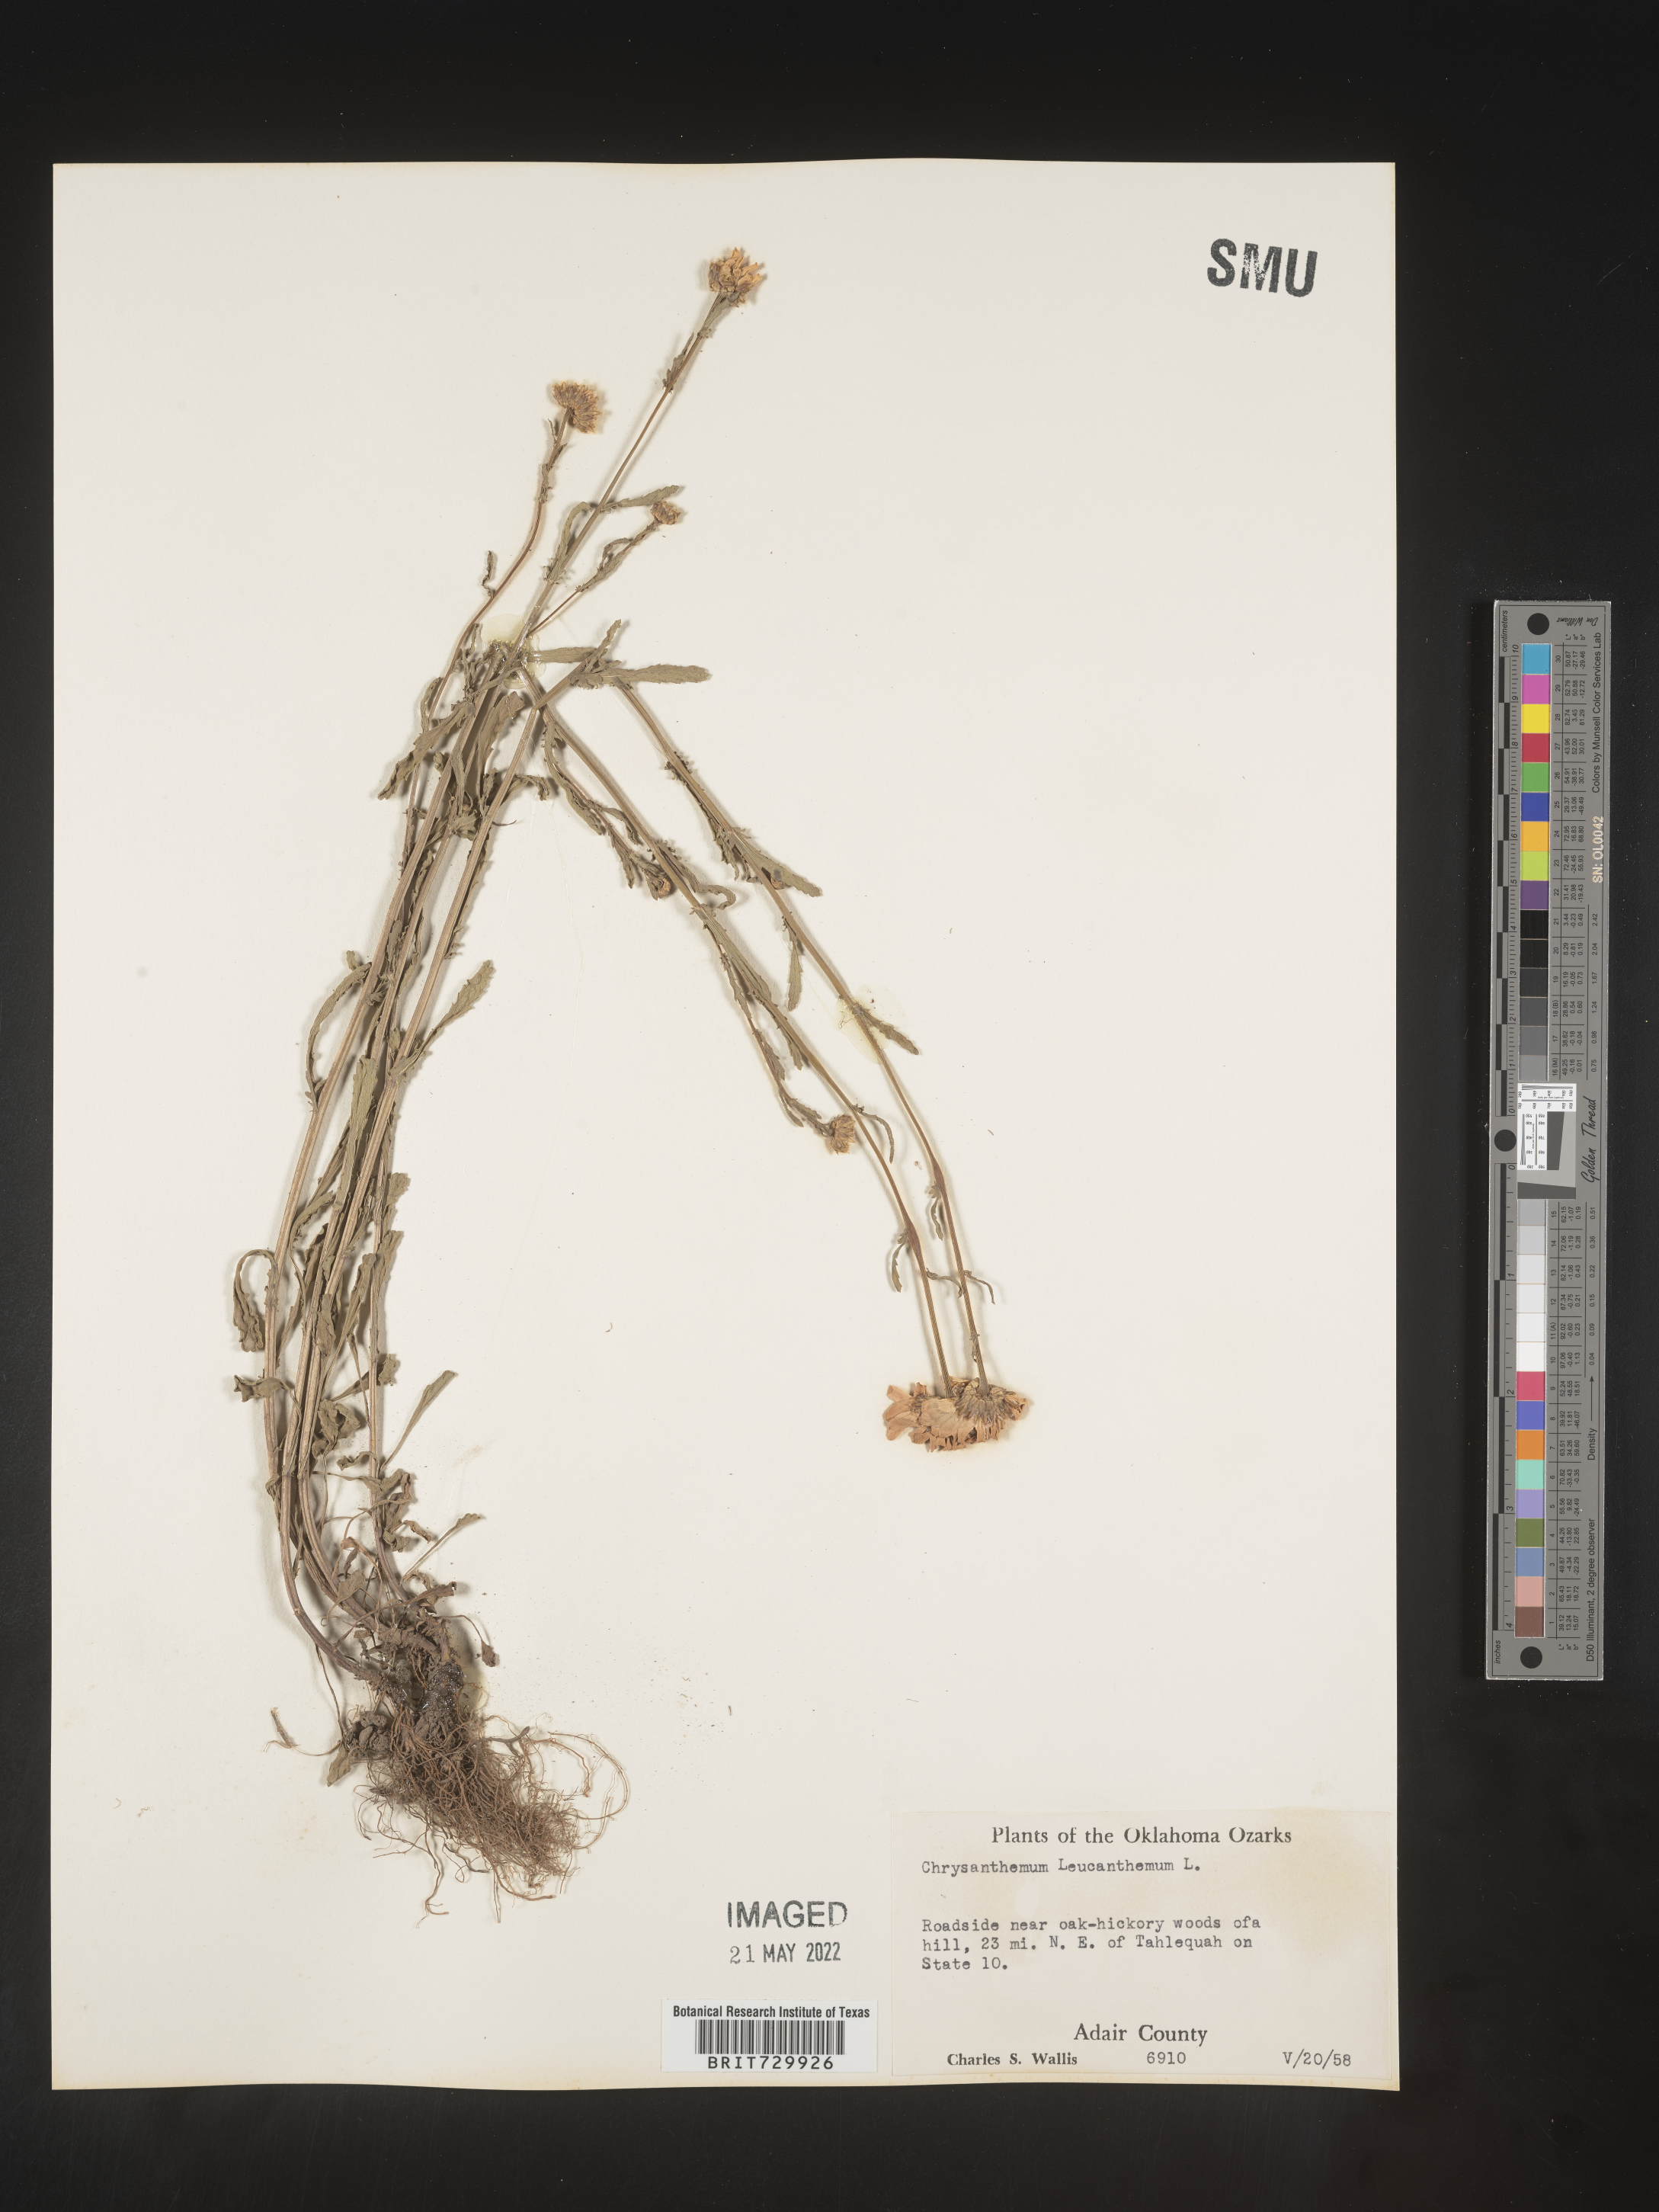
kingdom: Plantae
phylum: Tracheophyta
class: Magnoliopsida
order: Asterales
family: Asteraceae
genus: Leucanthemum
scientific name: Leucanthemum vulgare
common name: Oxeye daisy
